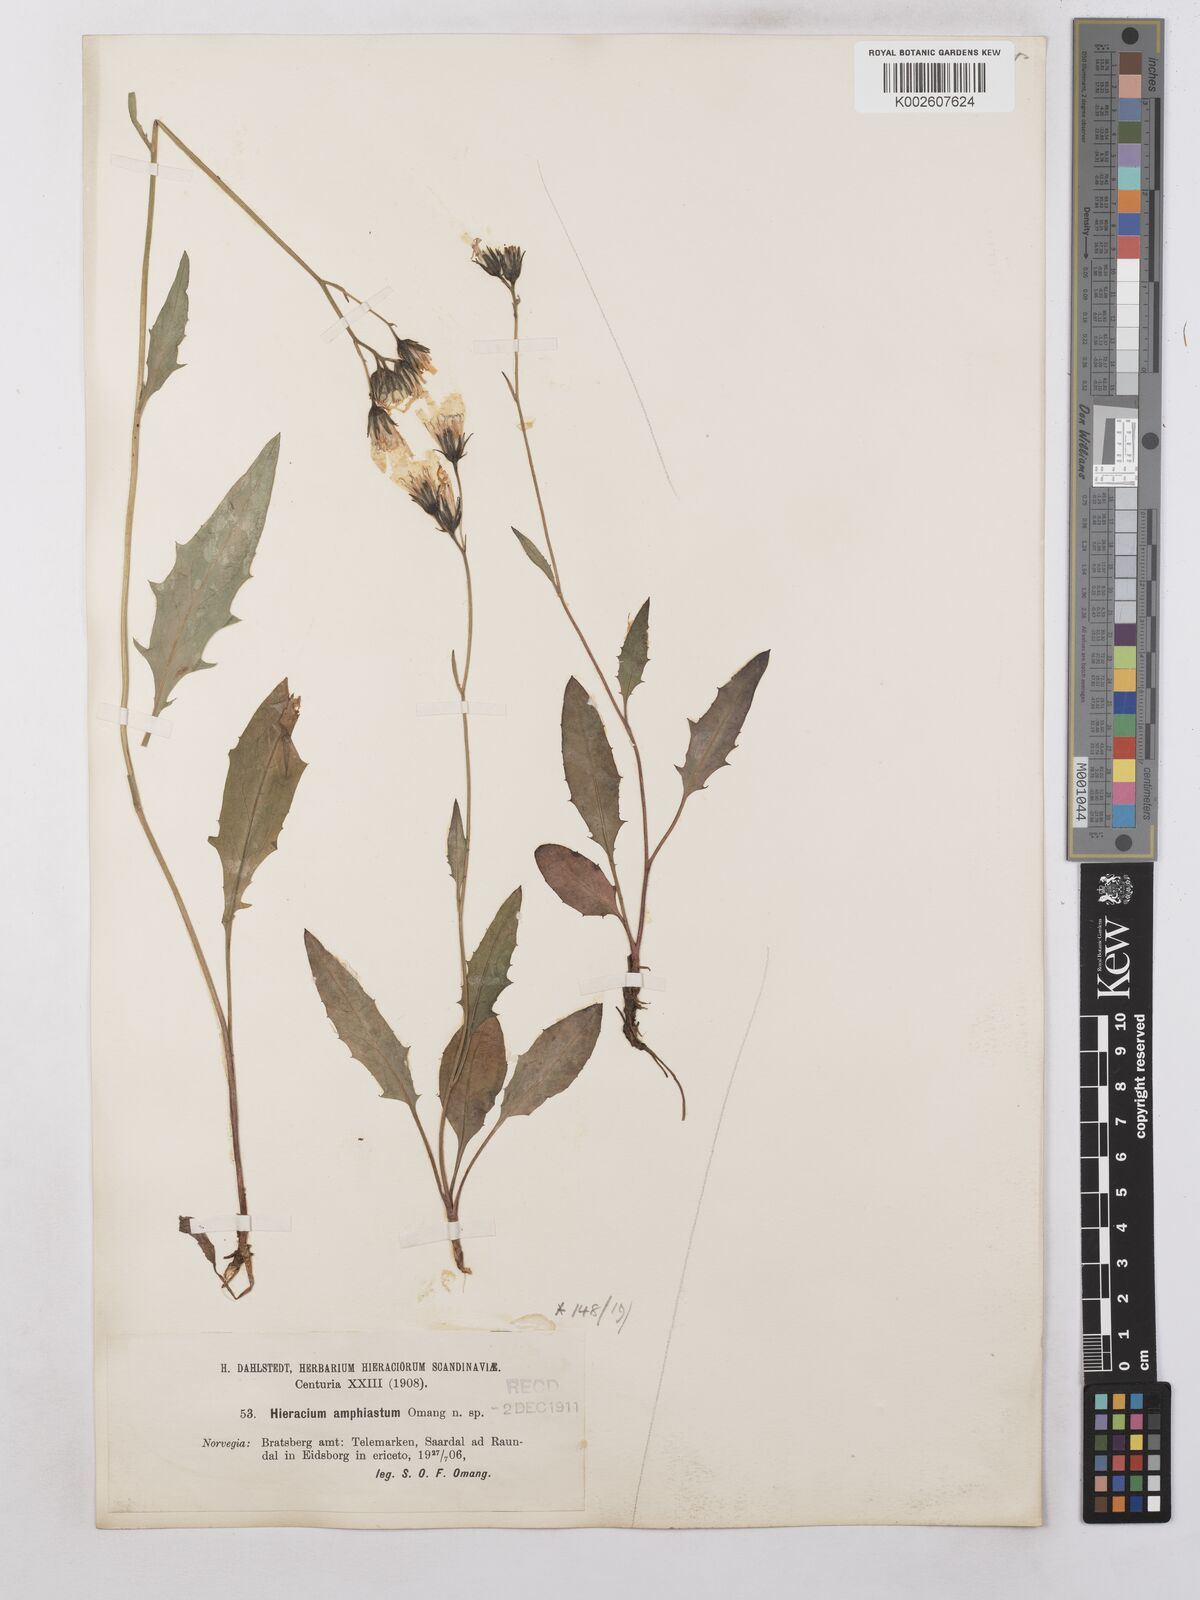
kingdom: Plantae
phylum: Tracheophyta
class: Magnoliopsida
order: Asterales
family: Asteraceae
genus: Hieracium
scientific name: Hieracium subramosum
